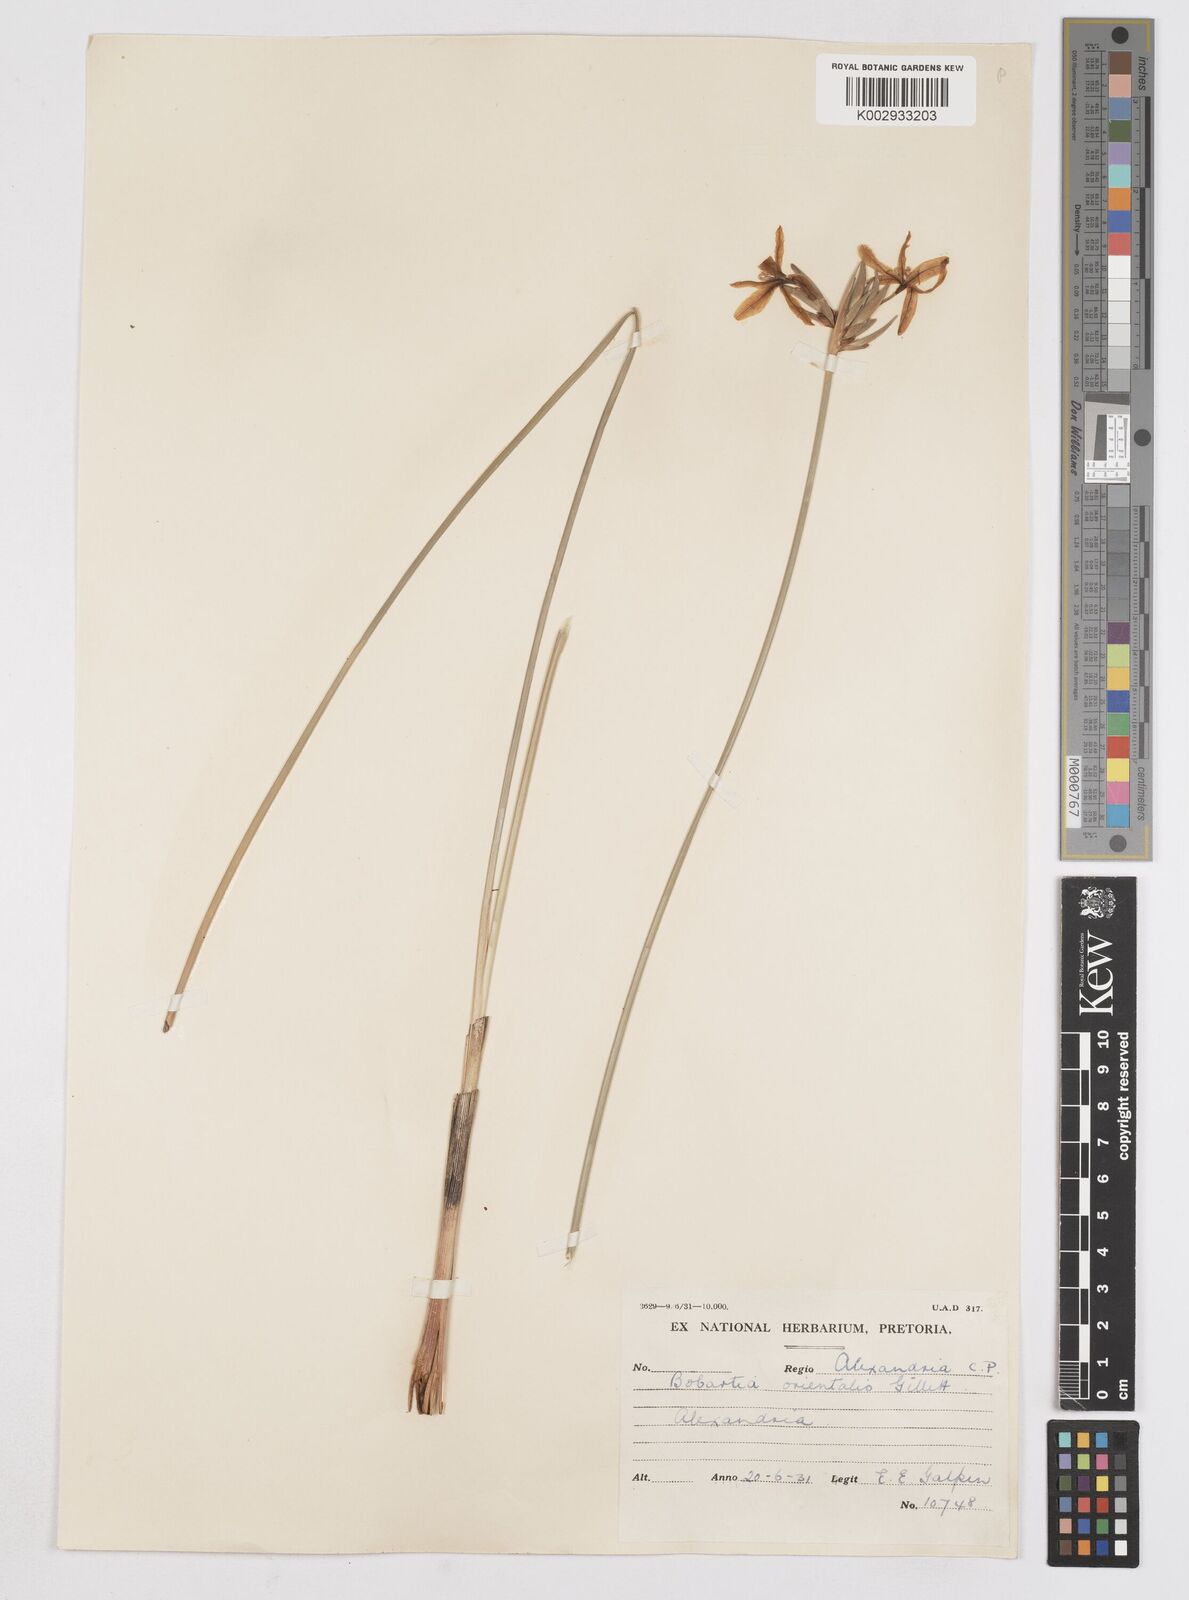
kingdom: Plantae
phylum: Tracheophyta
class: Liliopsida
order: Asparagales
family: Iridaceae
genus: Bobartia
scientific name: Bobartia orientalis
